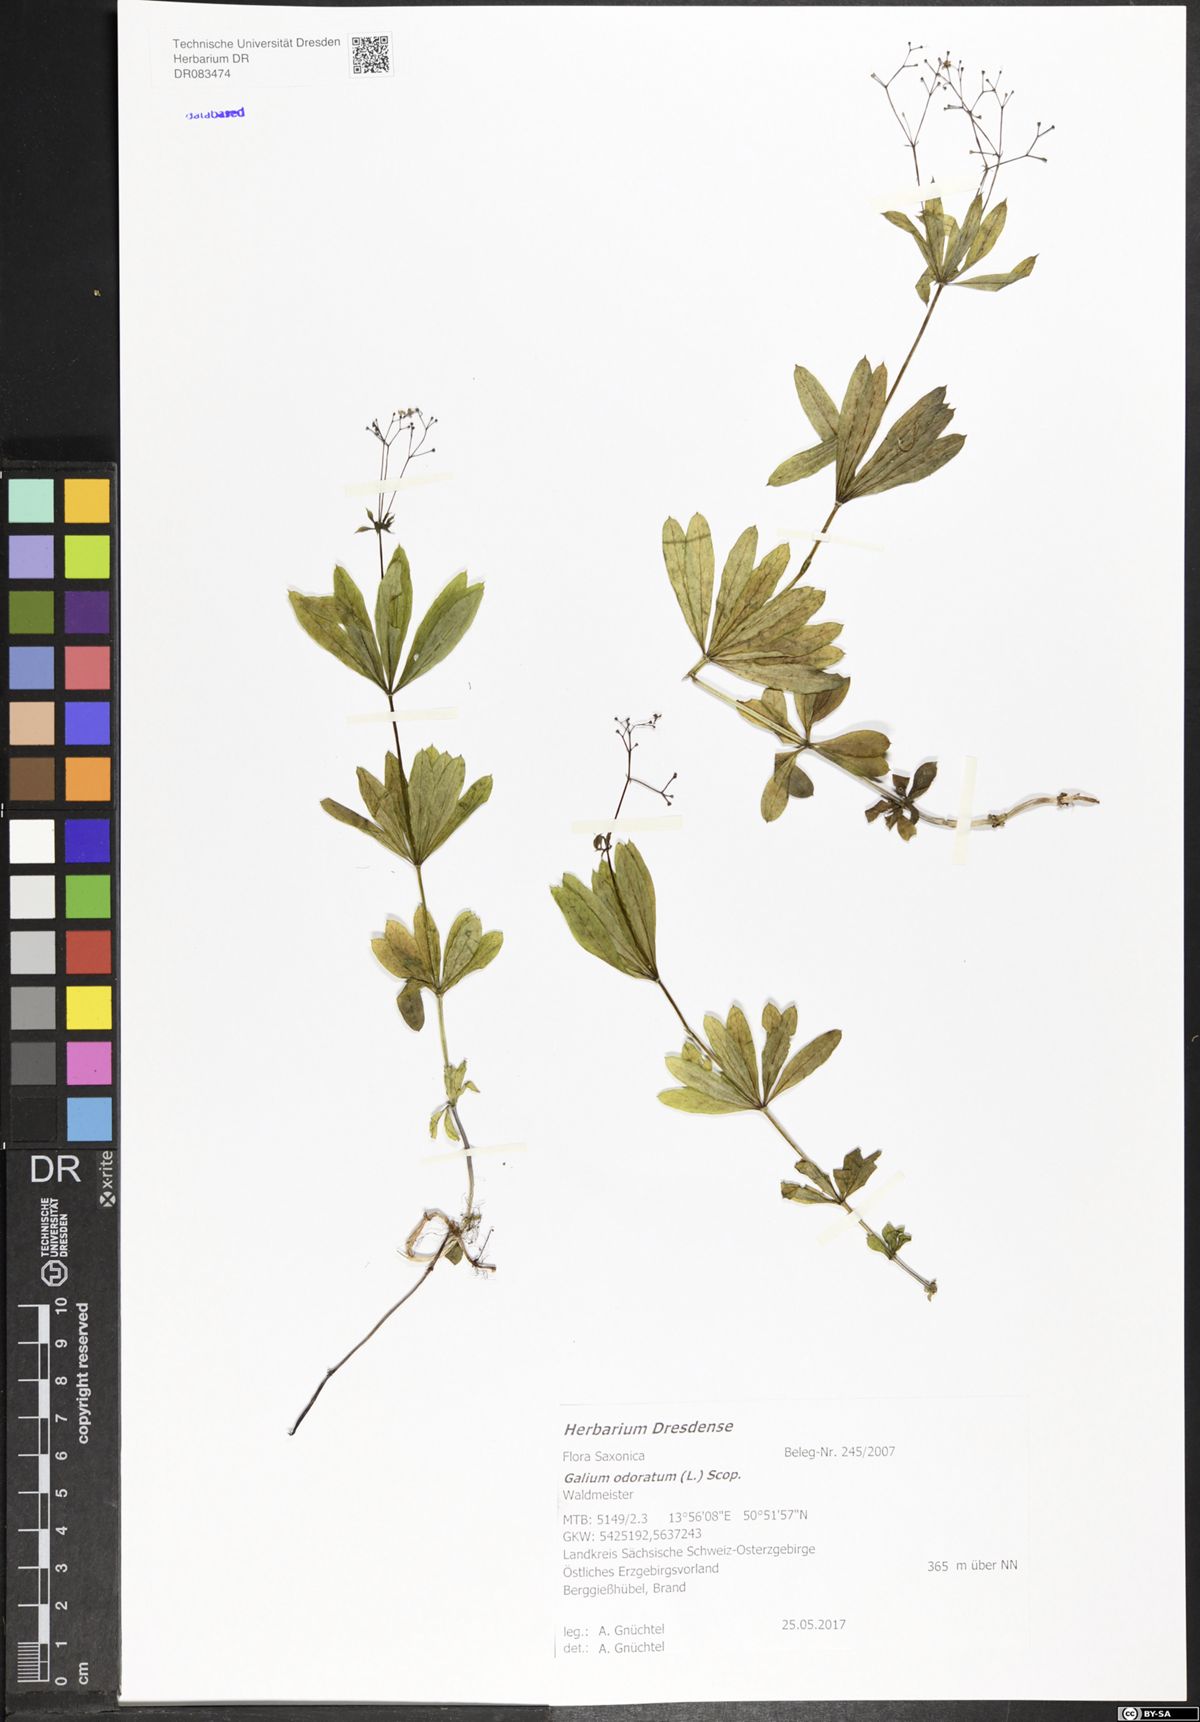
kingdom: Plantae
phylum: Tracheophyta
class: Magnoliopsida
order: Gentianales
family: Rubiaceae
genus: Galium
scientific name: Galium odoratum
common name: Sweet woodruff
